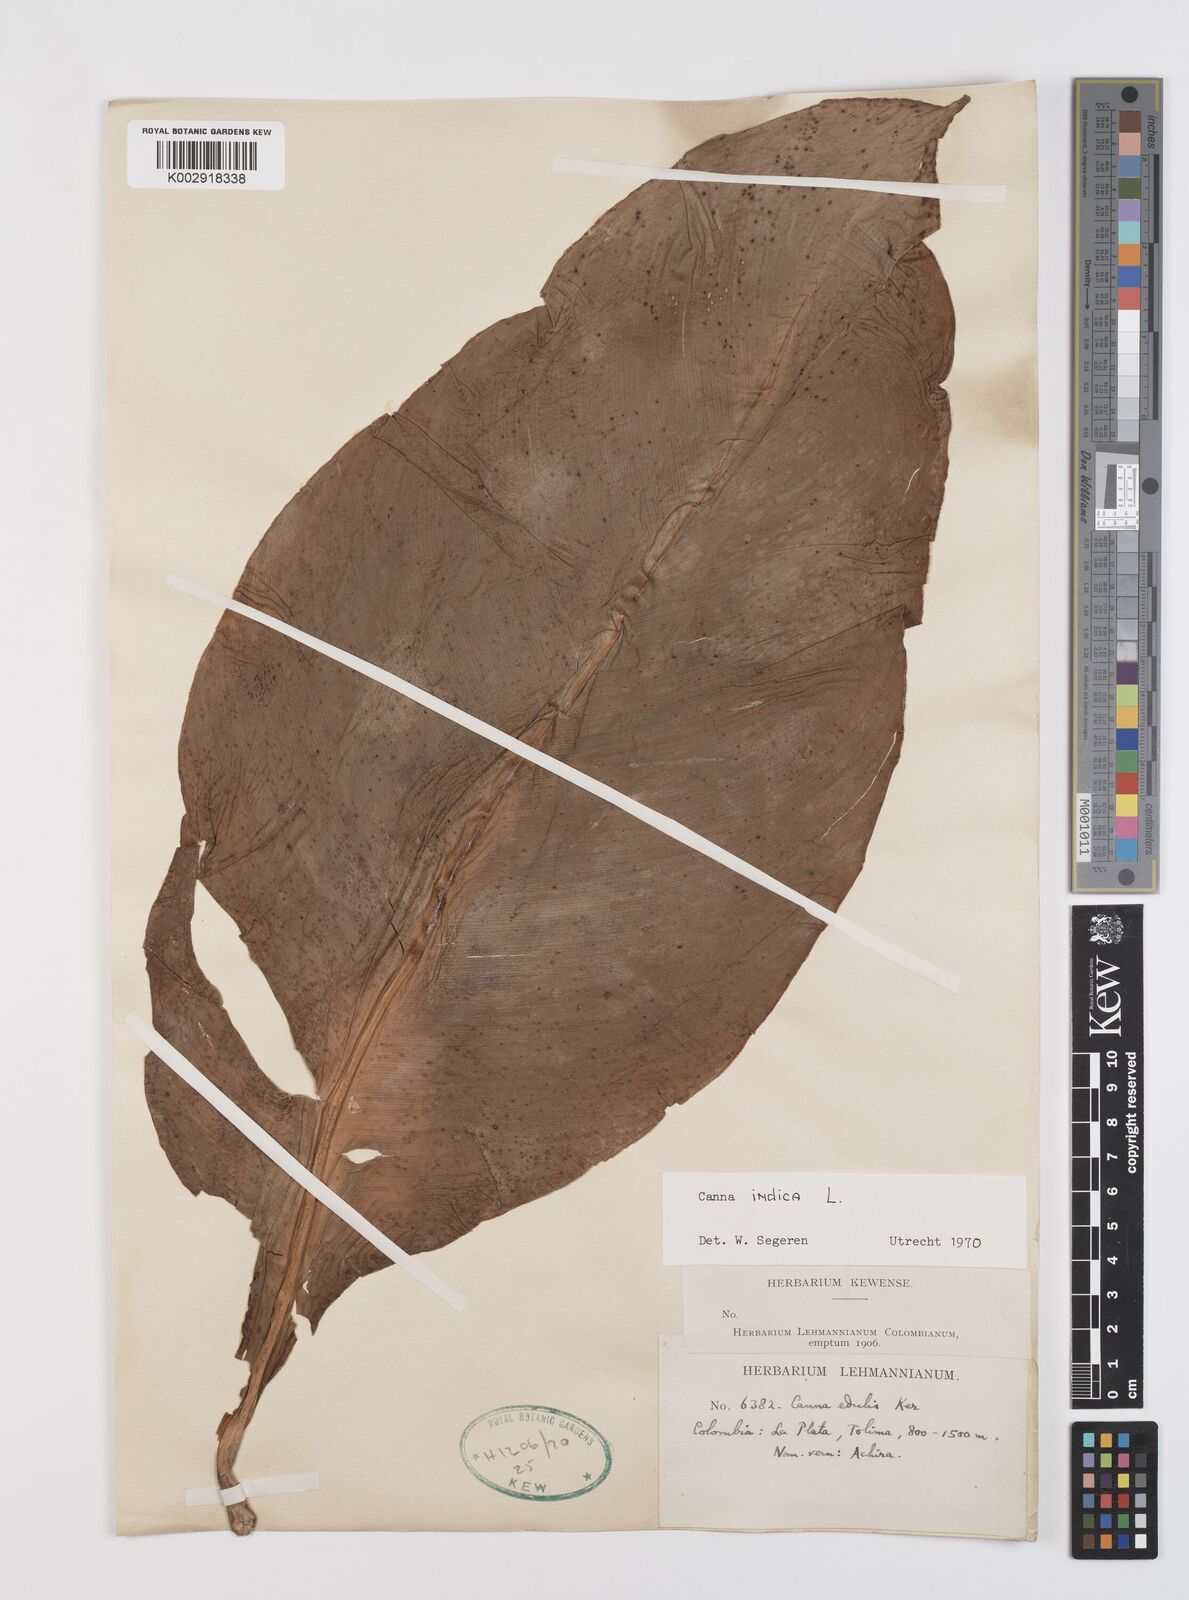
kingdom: Plantae
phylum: Tracheophyta
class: Liliopsida
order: Zingiberales
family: Cannaceae
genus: Canna
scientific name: Canna indica
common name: Indian shot
